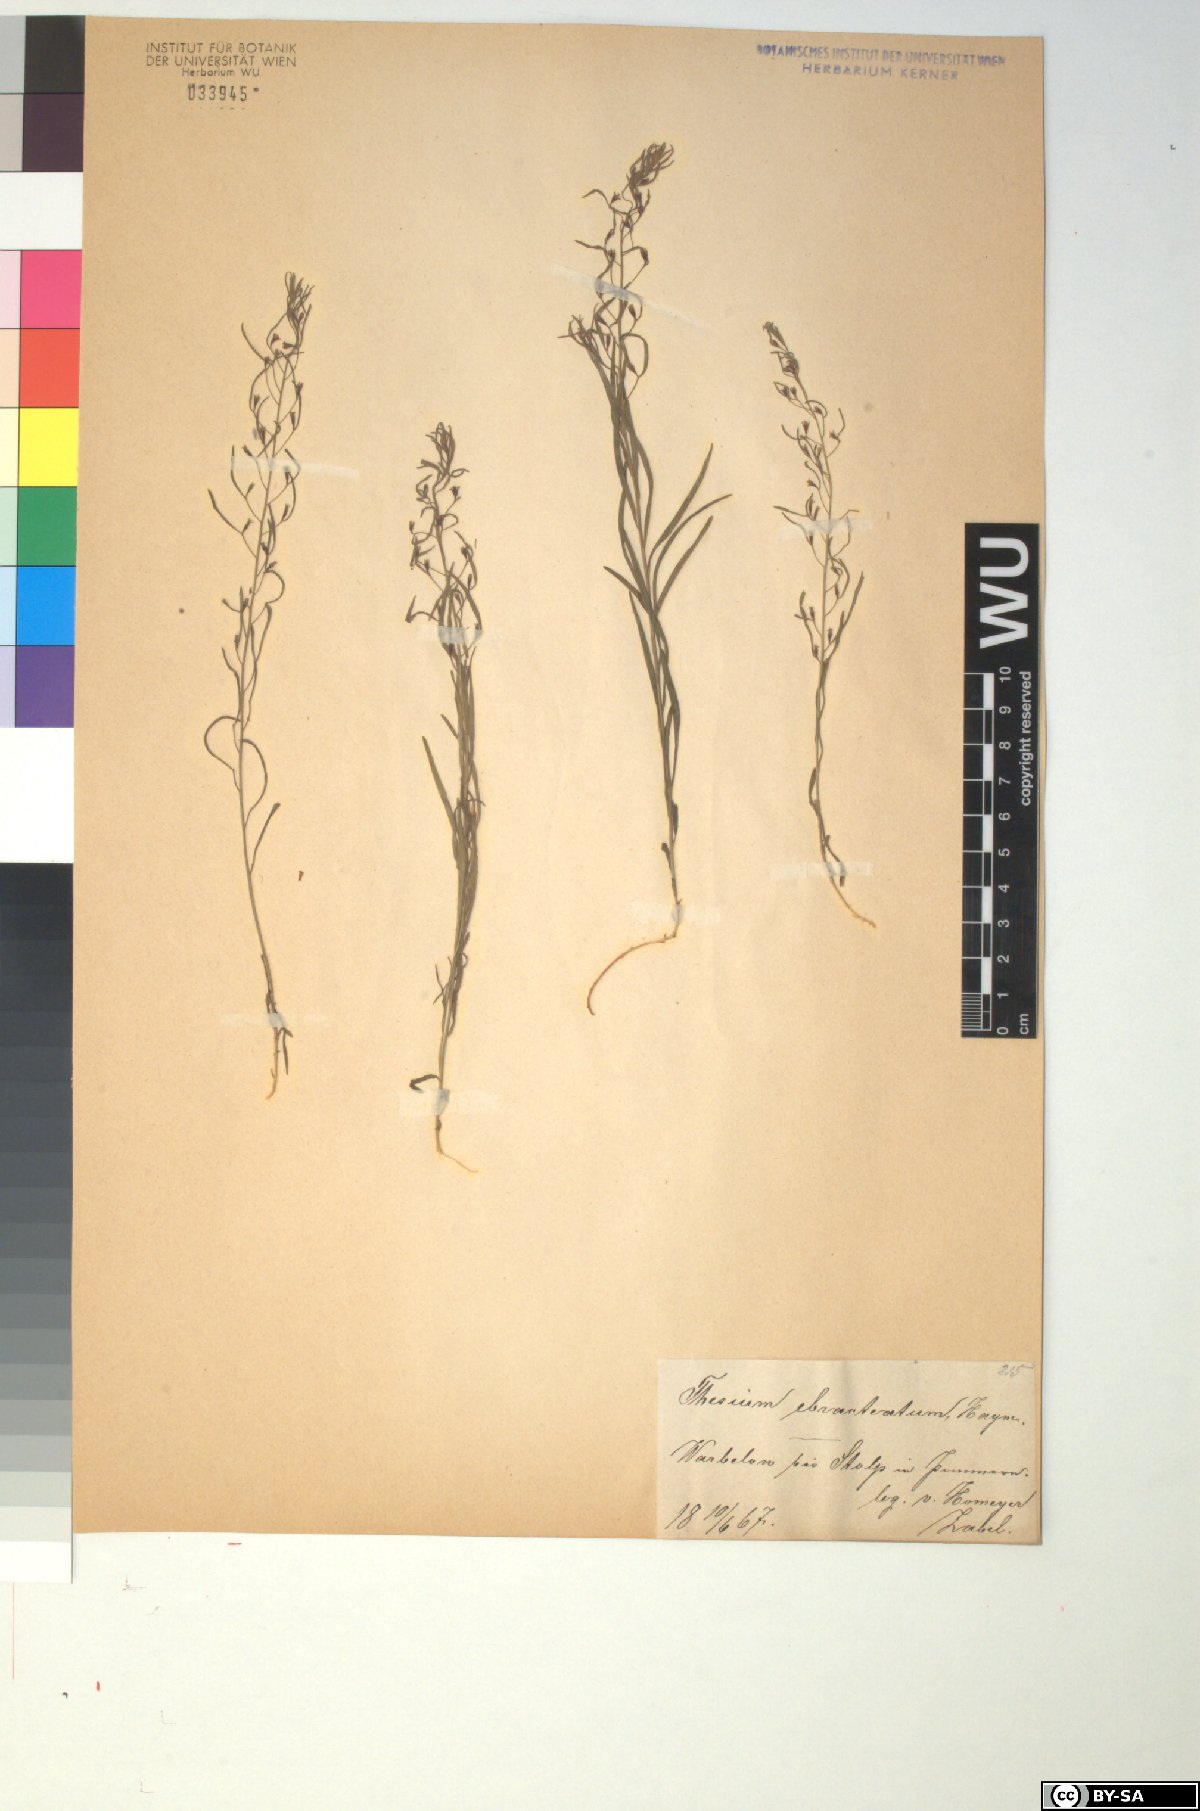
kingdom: Plantae
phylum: Tracheophyta
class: Magnoliopsida
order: Santalales
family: Thesiaceae
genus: Thesium
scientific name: Thesium ebracteatum
